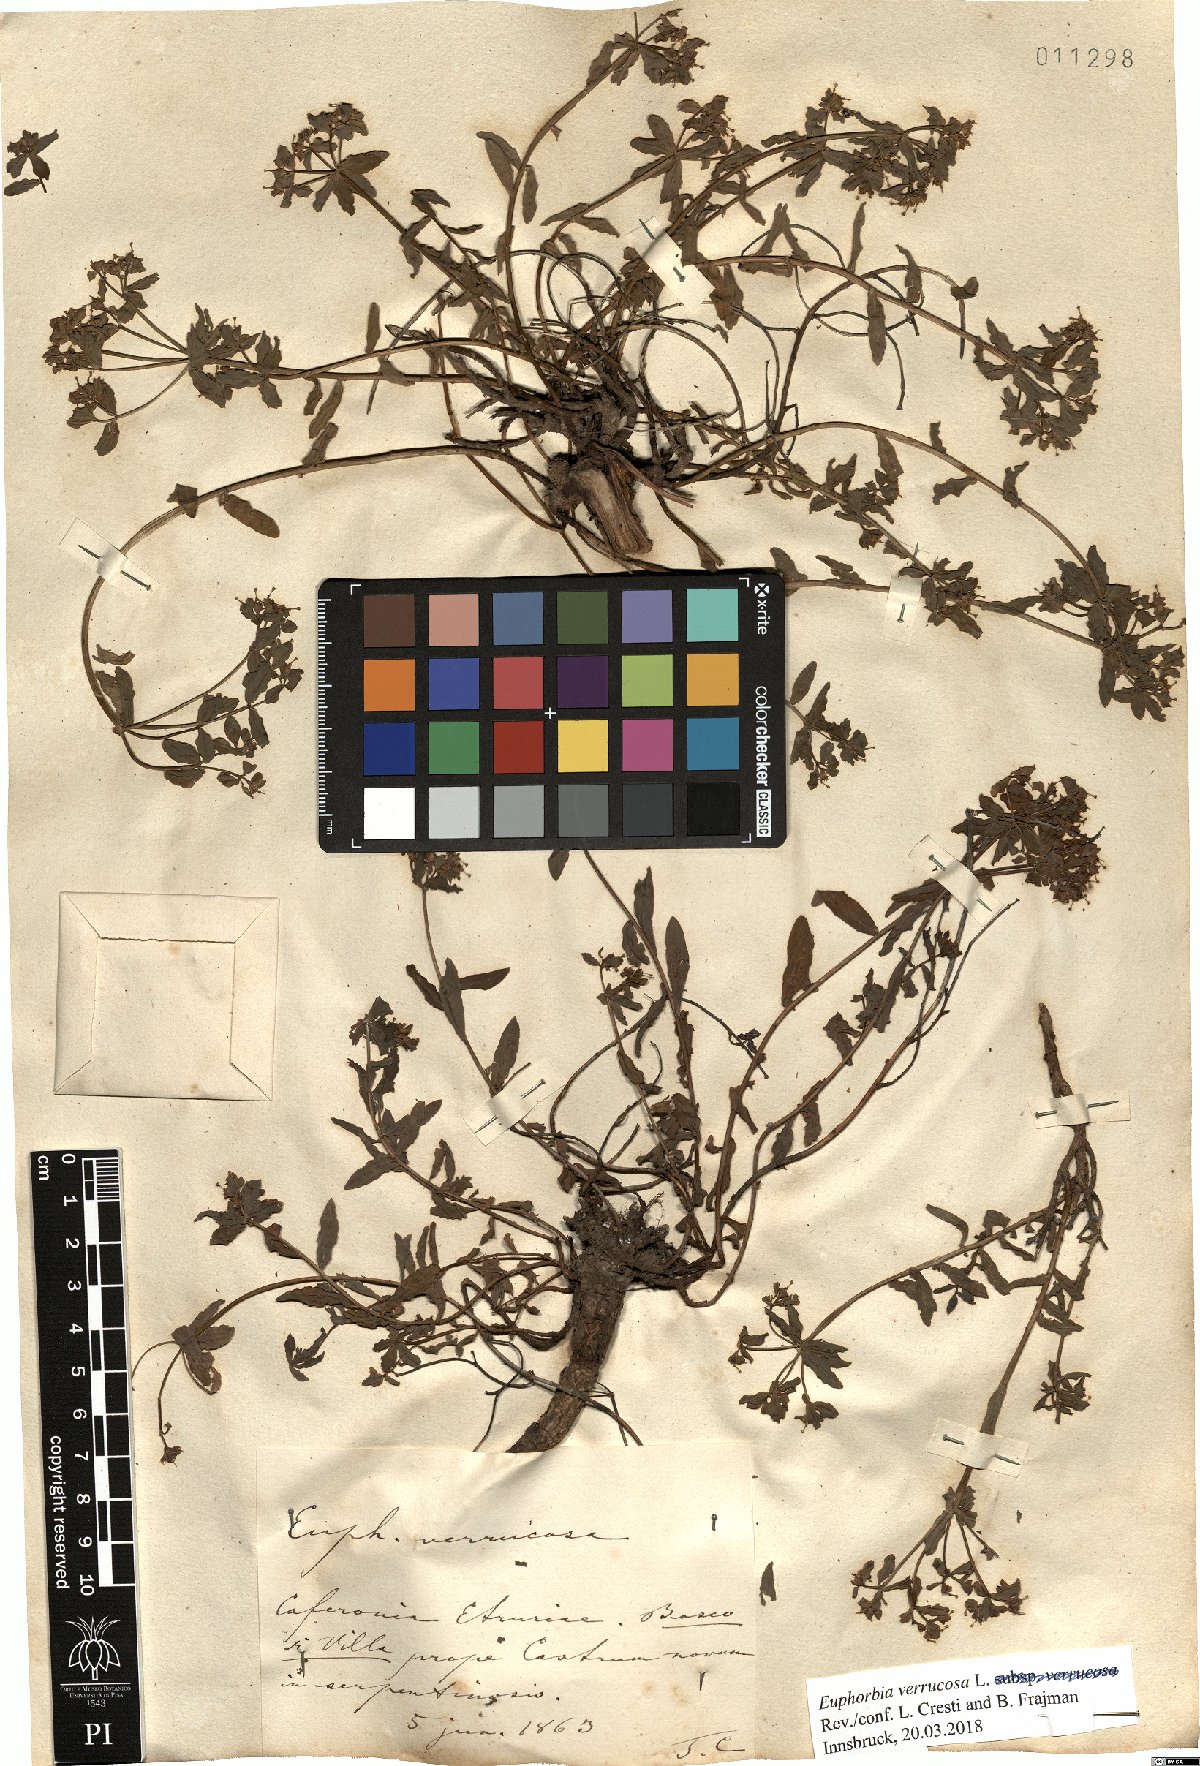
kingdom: Plantae
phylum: Tracheophyta
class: Magnoliopsida
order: Malpighiales
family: Euphorbiaceae
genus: Euphorbia
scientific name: Euphorbia verrucosa
